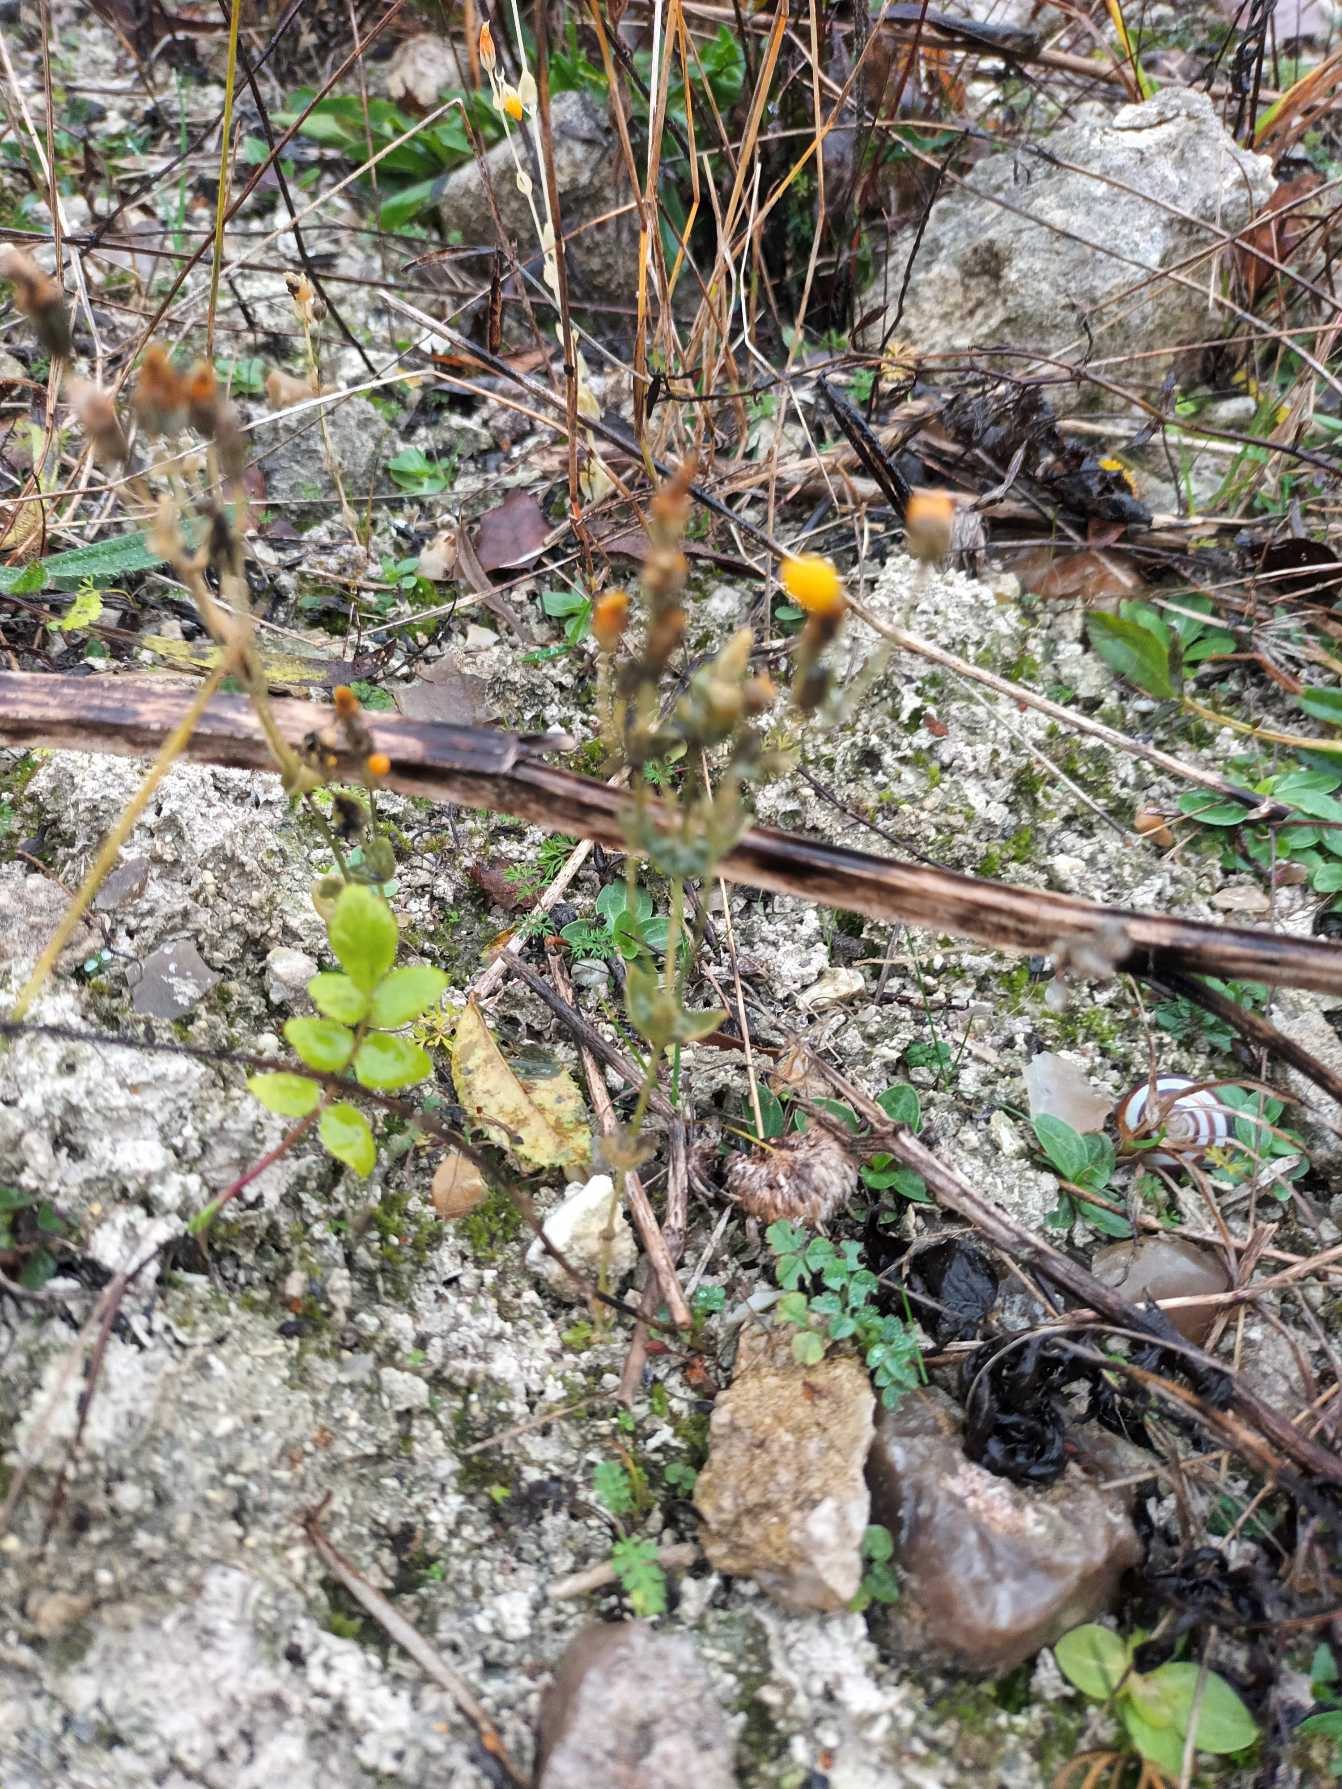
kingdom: Plantae
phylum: Tracheophyta
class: Magnoliopsida
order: Gentianales
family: Gentianaceae
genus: Blackstonia
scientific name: Blackstonia perfoliata
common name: Almindelig gyldenurt
